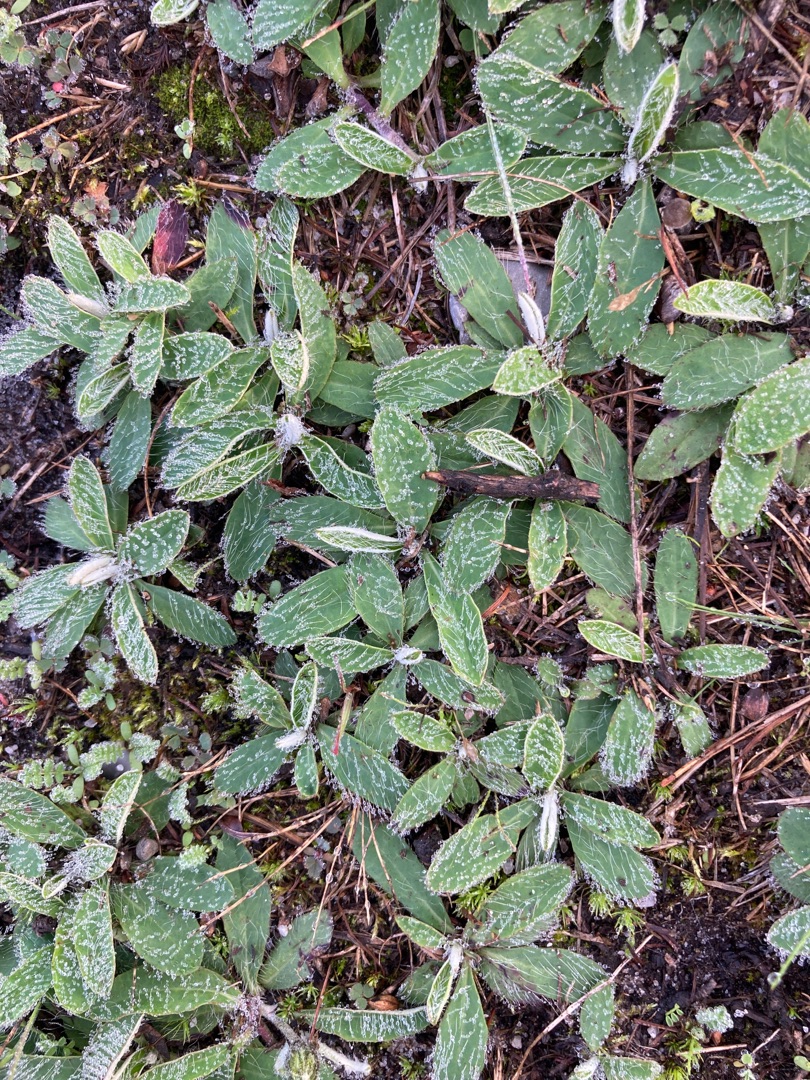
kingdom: Plantae
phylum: Tracheophyta
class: Magnoliopsida
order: Asterales
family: Asteraceae
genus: Pilosella
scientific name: Pilosella officinarum
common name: Håret høgeurt
